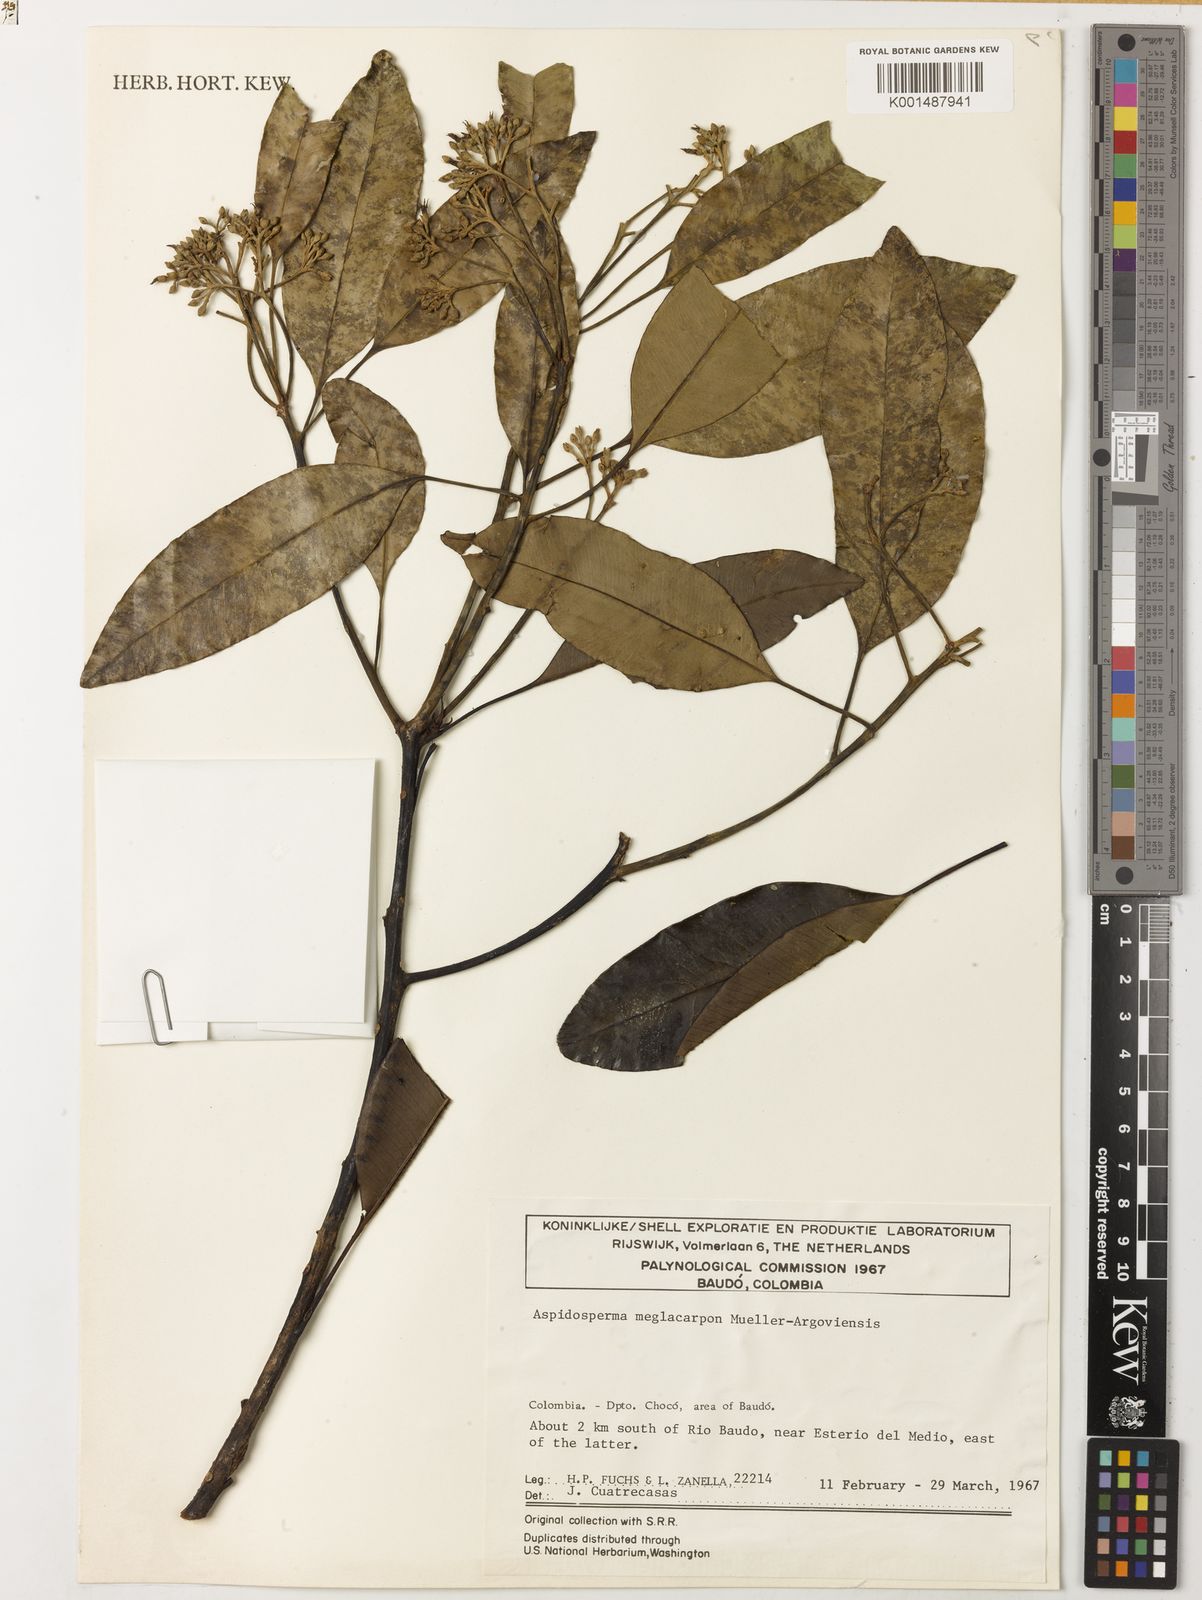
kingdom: Plantae
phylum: Tracheophyta
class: Magnoliopsida
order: Gentianales
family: Apocynaceae
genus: Aspidosperma
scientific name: Aspidosperma megalocarpon
